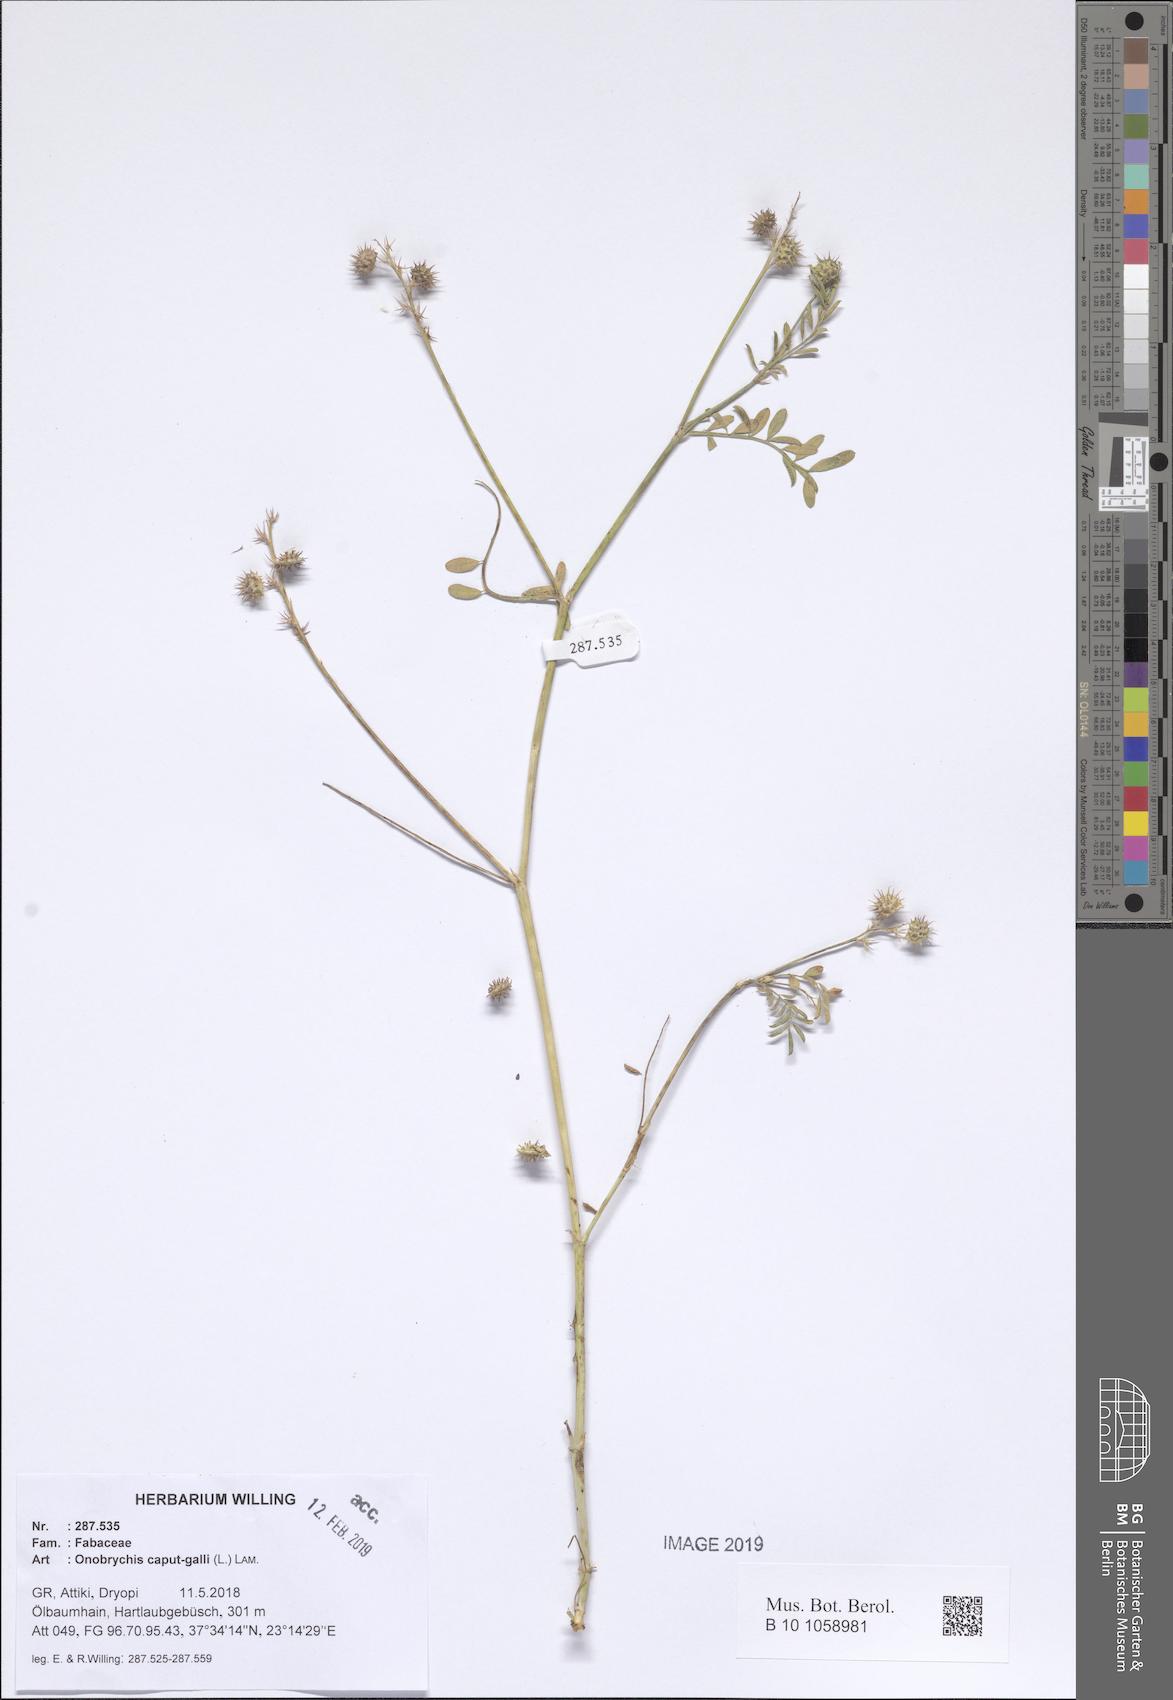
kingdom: Plantae
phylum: Tracheophyta
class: Magnoliopsida
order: Fabales
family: Fabaceae
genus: Onobrychis
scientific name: Onobrychis caput-galli
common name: Cockscomb sainfoin
